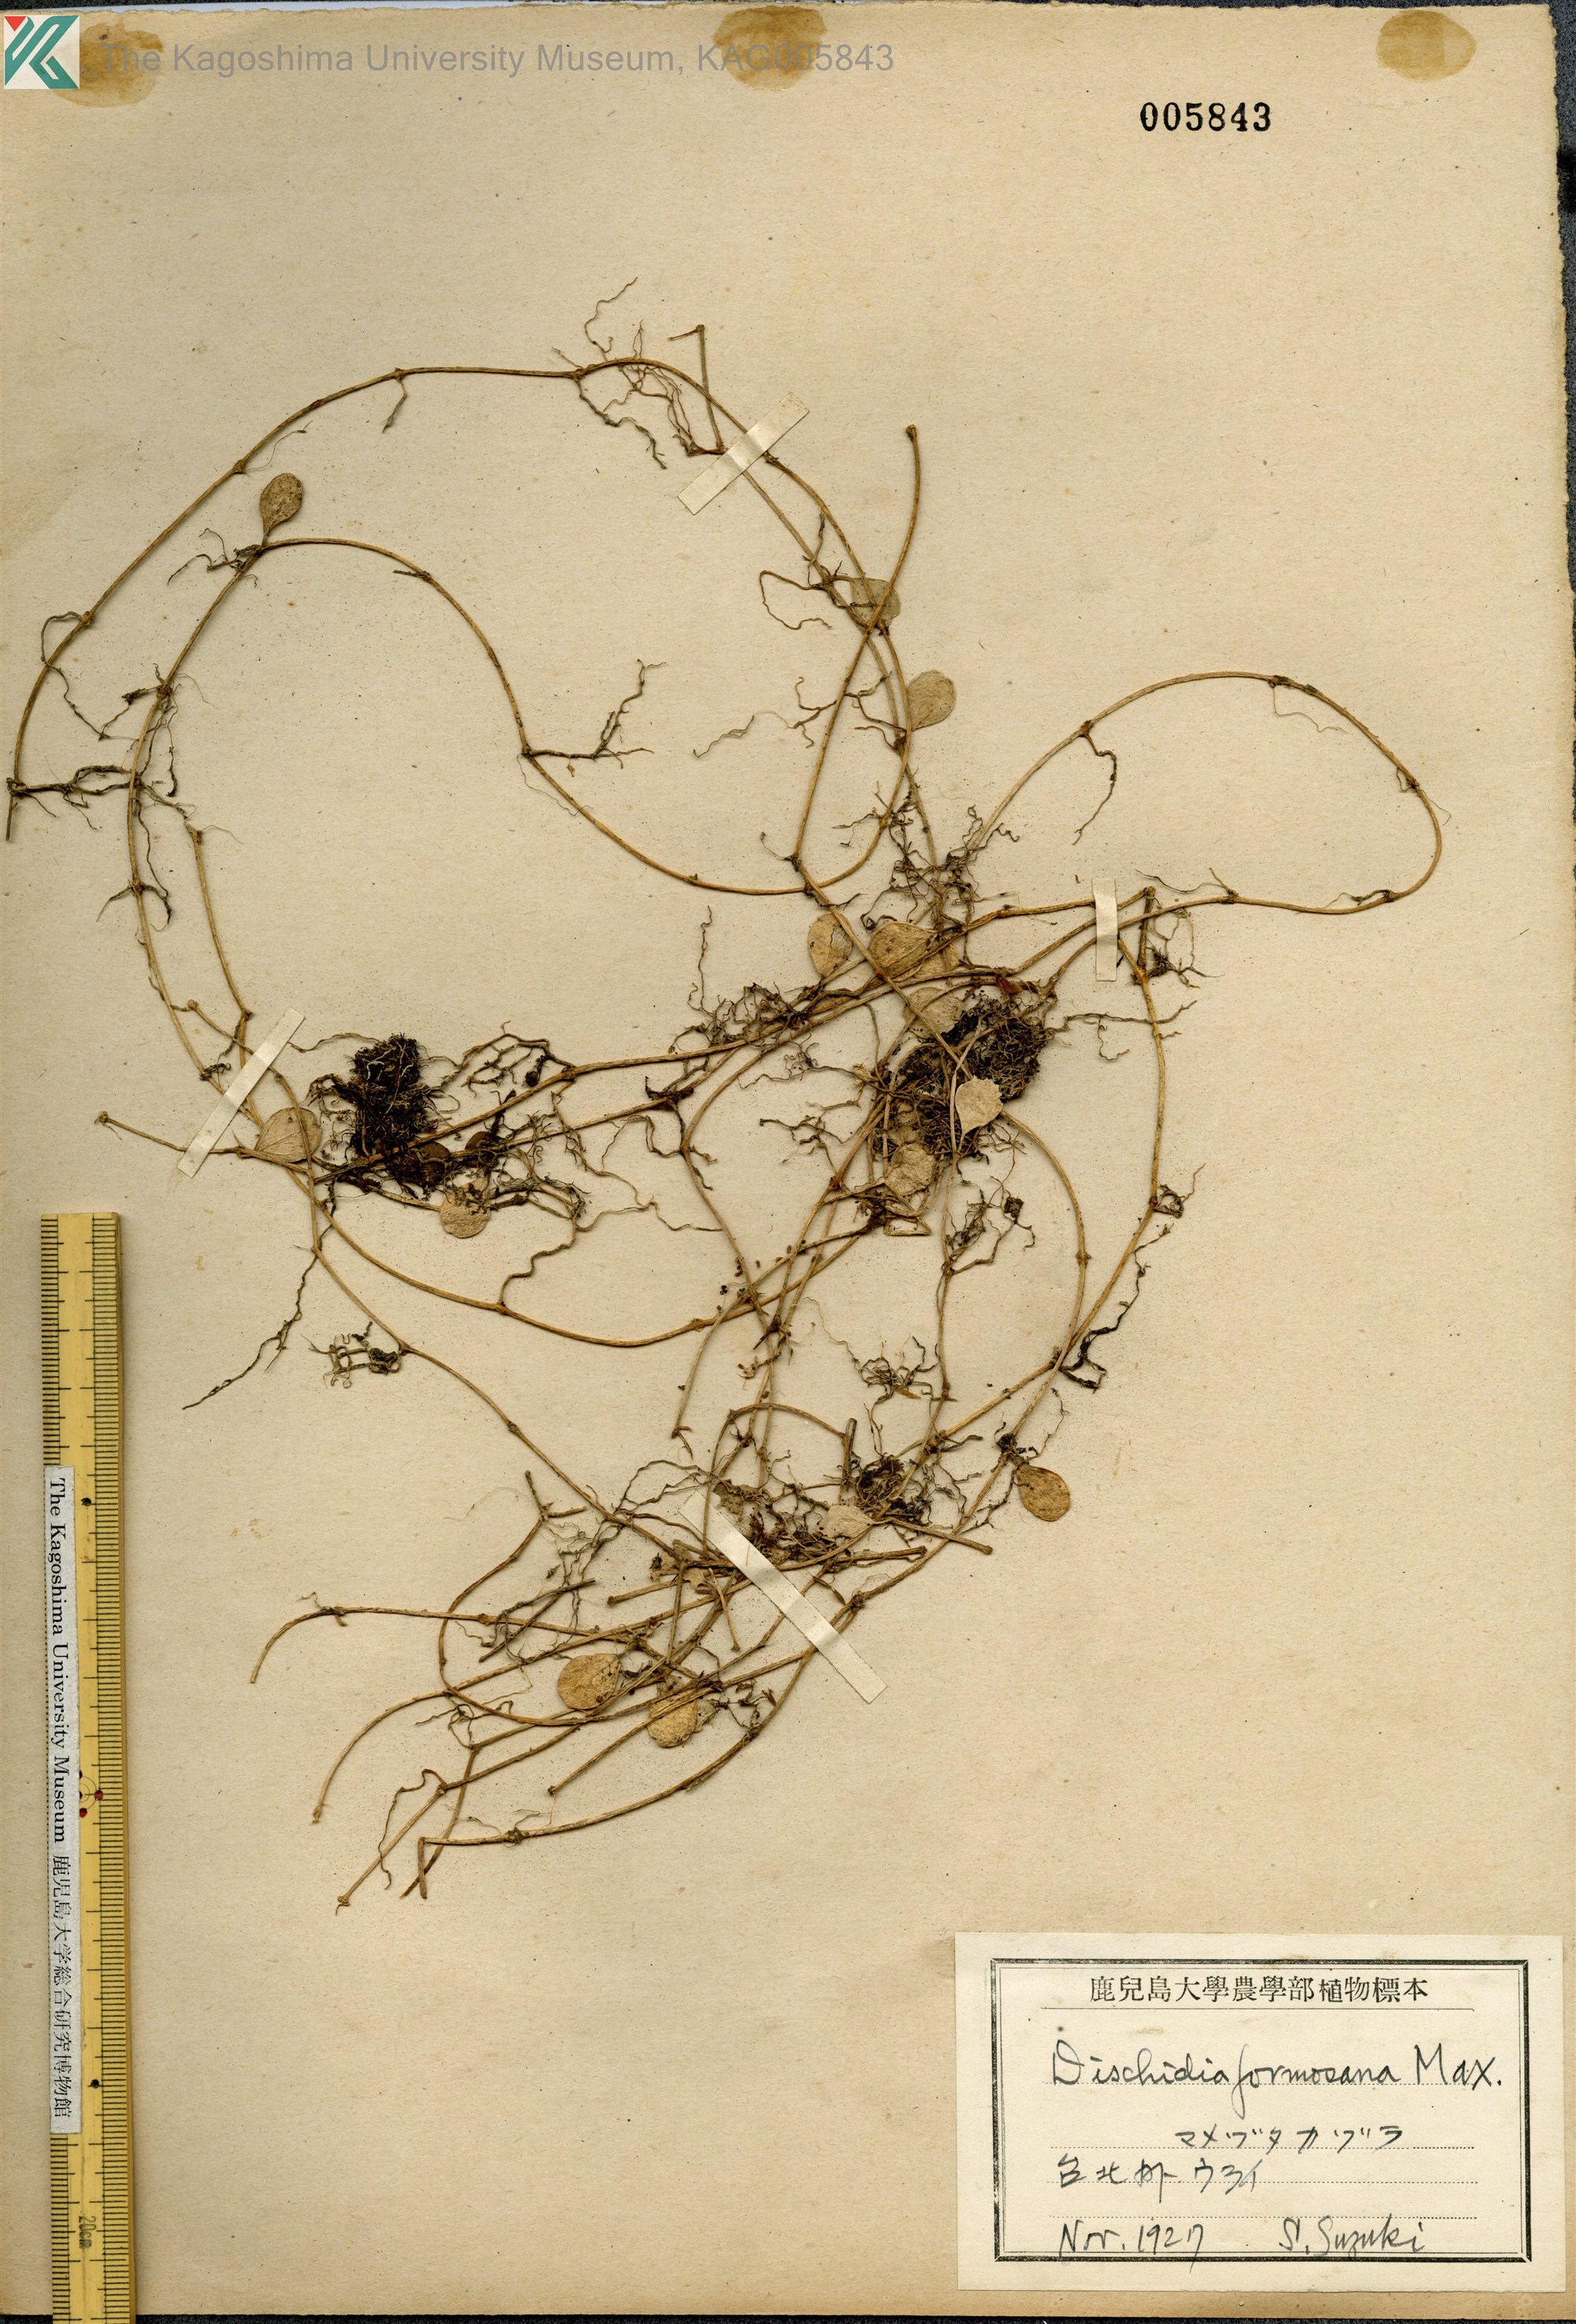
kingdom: Plantae
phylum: Tracheophyta
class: Magnoliopsida
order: Gentianales
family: Apocynaceae
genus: Dischidia
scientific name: Dischidia formosana
